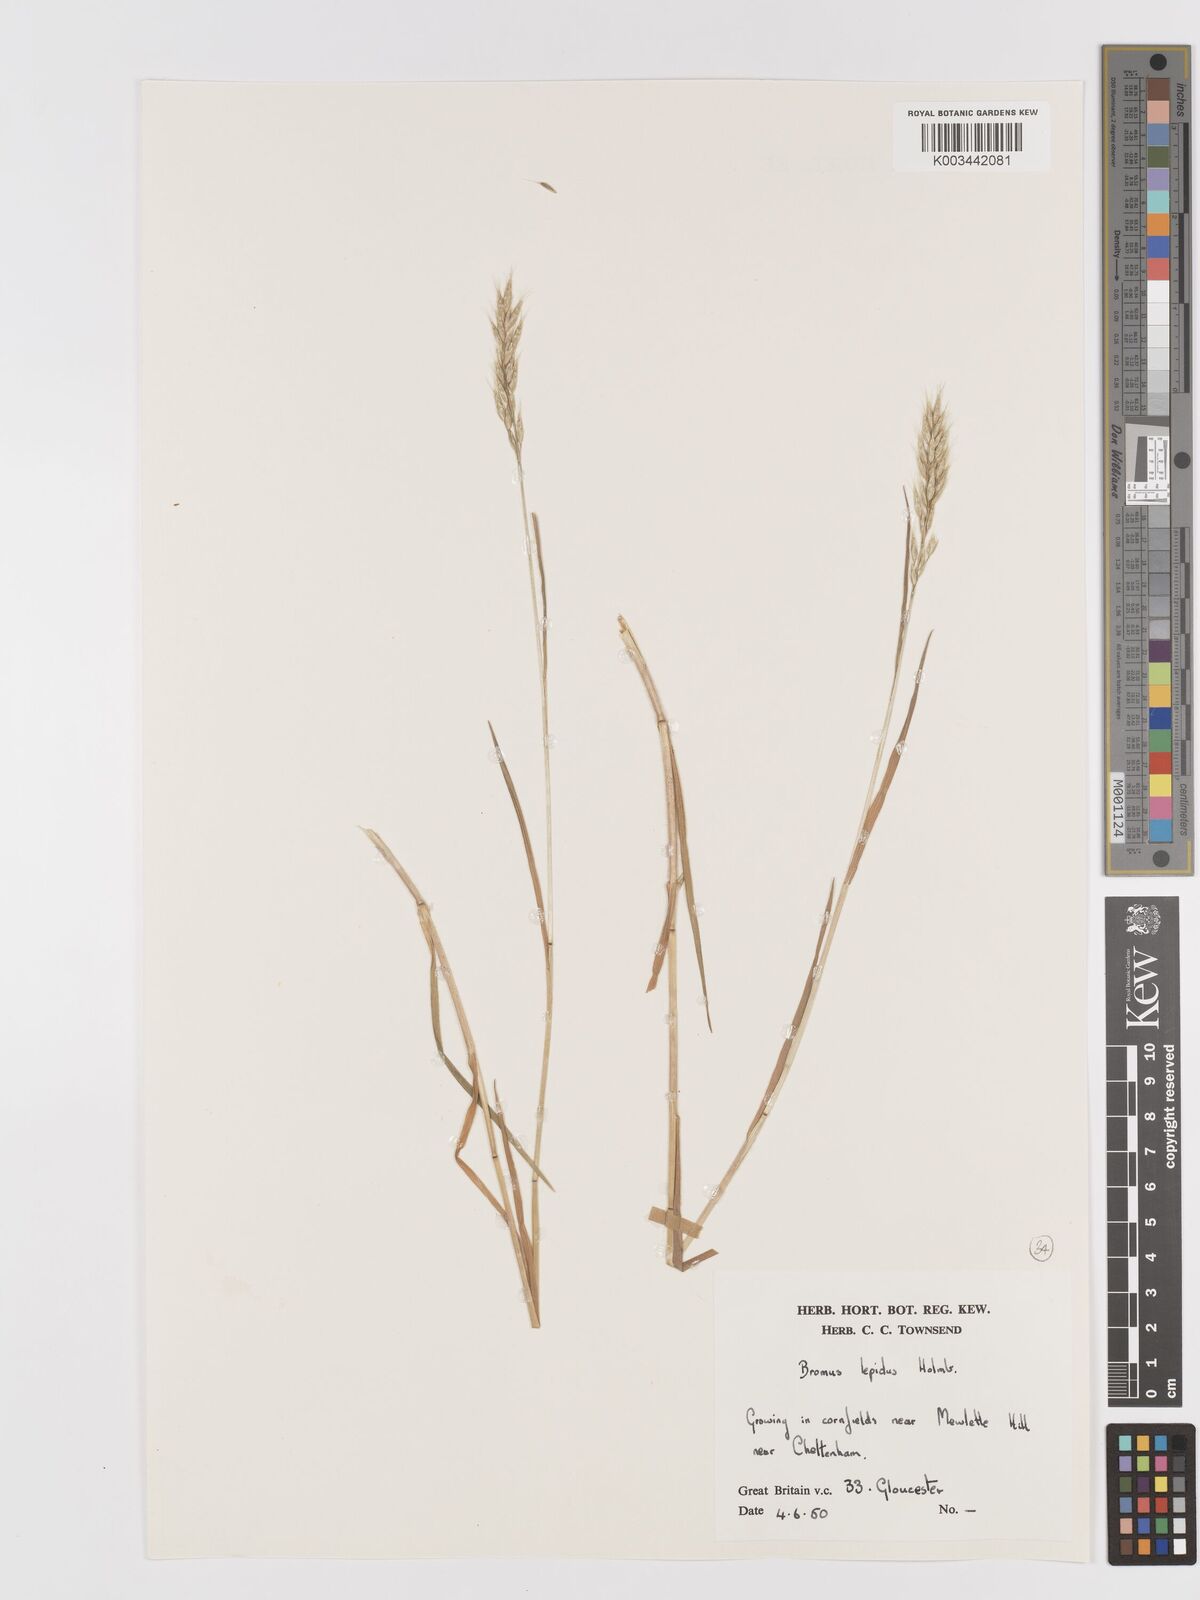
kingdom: Plantae
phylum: Tracheophyta
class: Liliopsida
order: Poales
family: Poaceae
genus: Bromus
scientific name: Bromus lepidus
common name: Slender soft-brome
